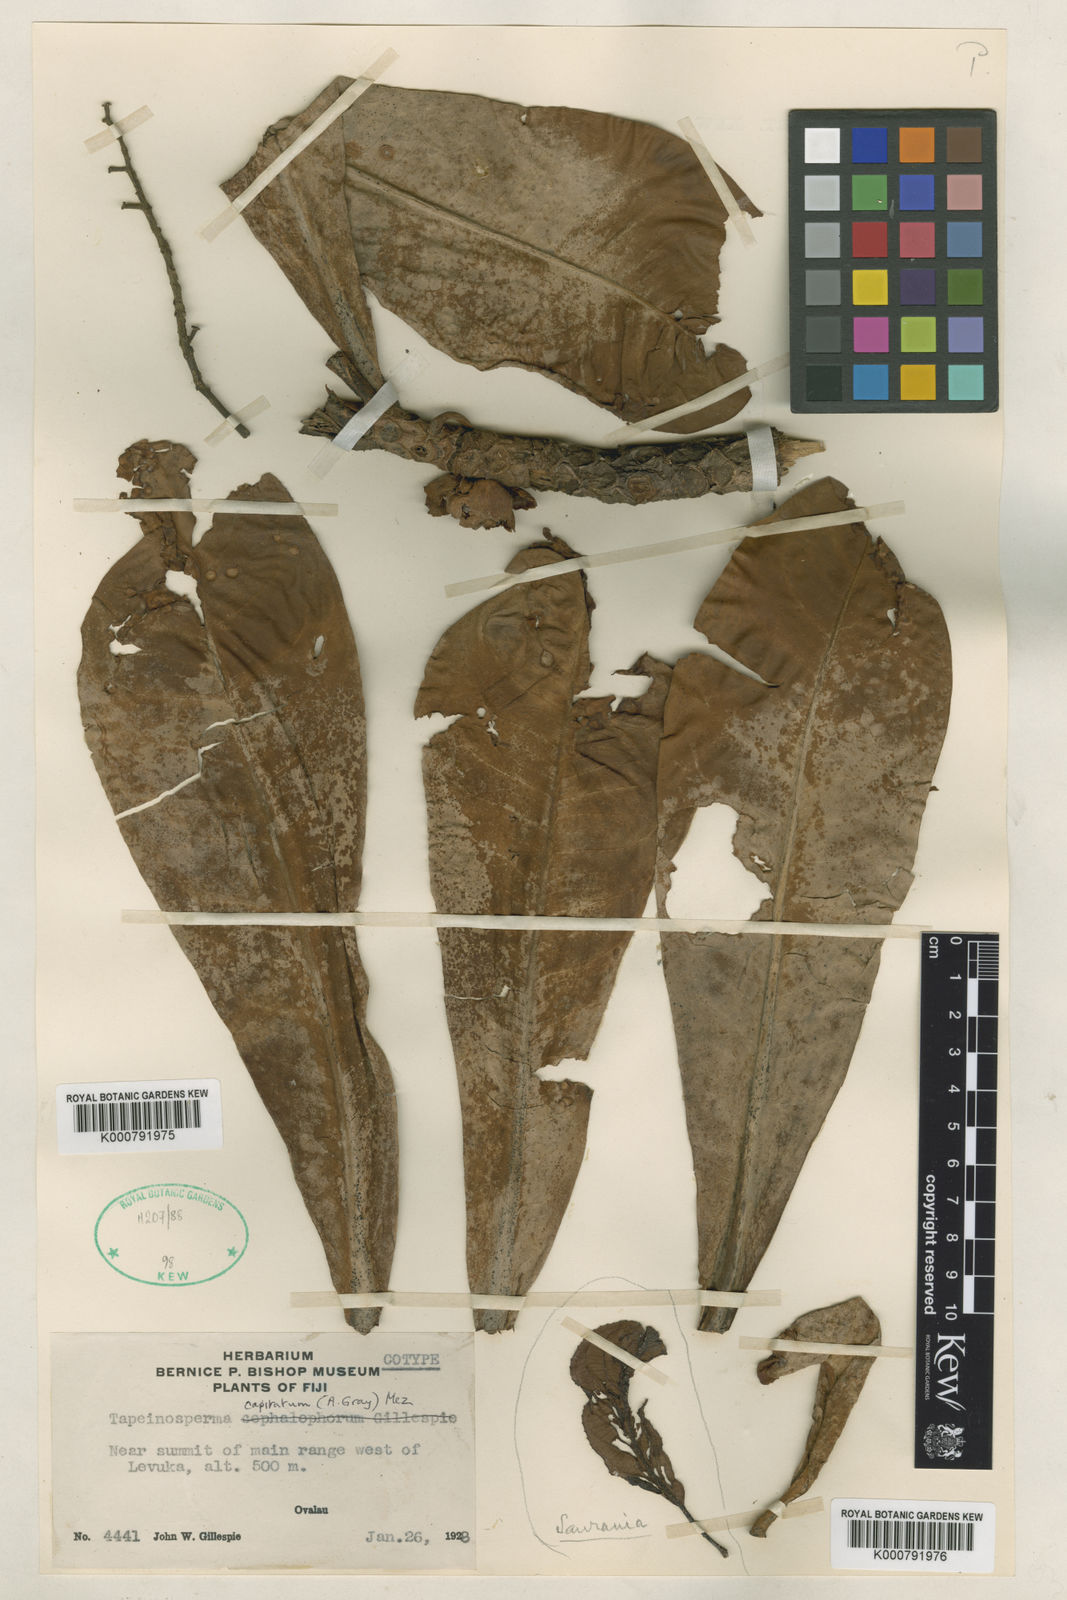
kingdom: Plantae
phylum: Tracheophyta
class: Magnoliopsida
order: Ericales
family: Primulaceae
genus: Tapeinosperma
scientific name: Tapeinosperma capitatum
